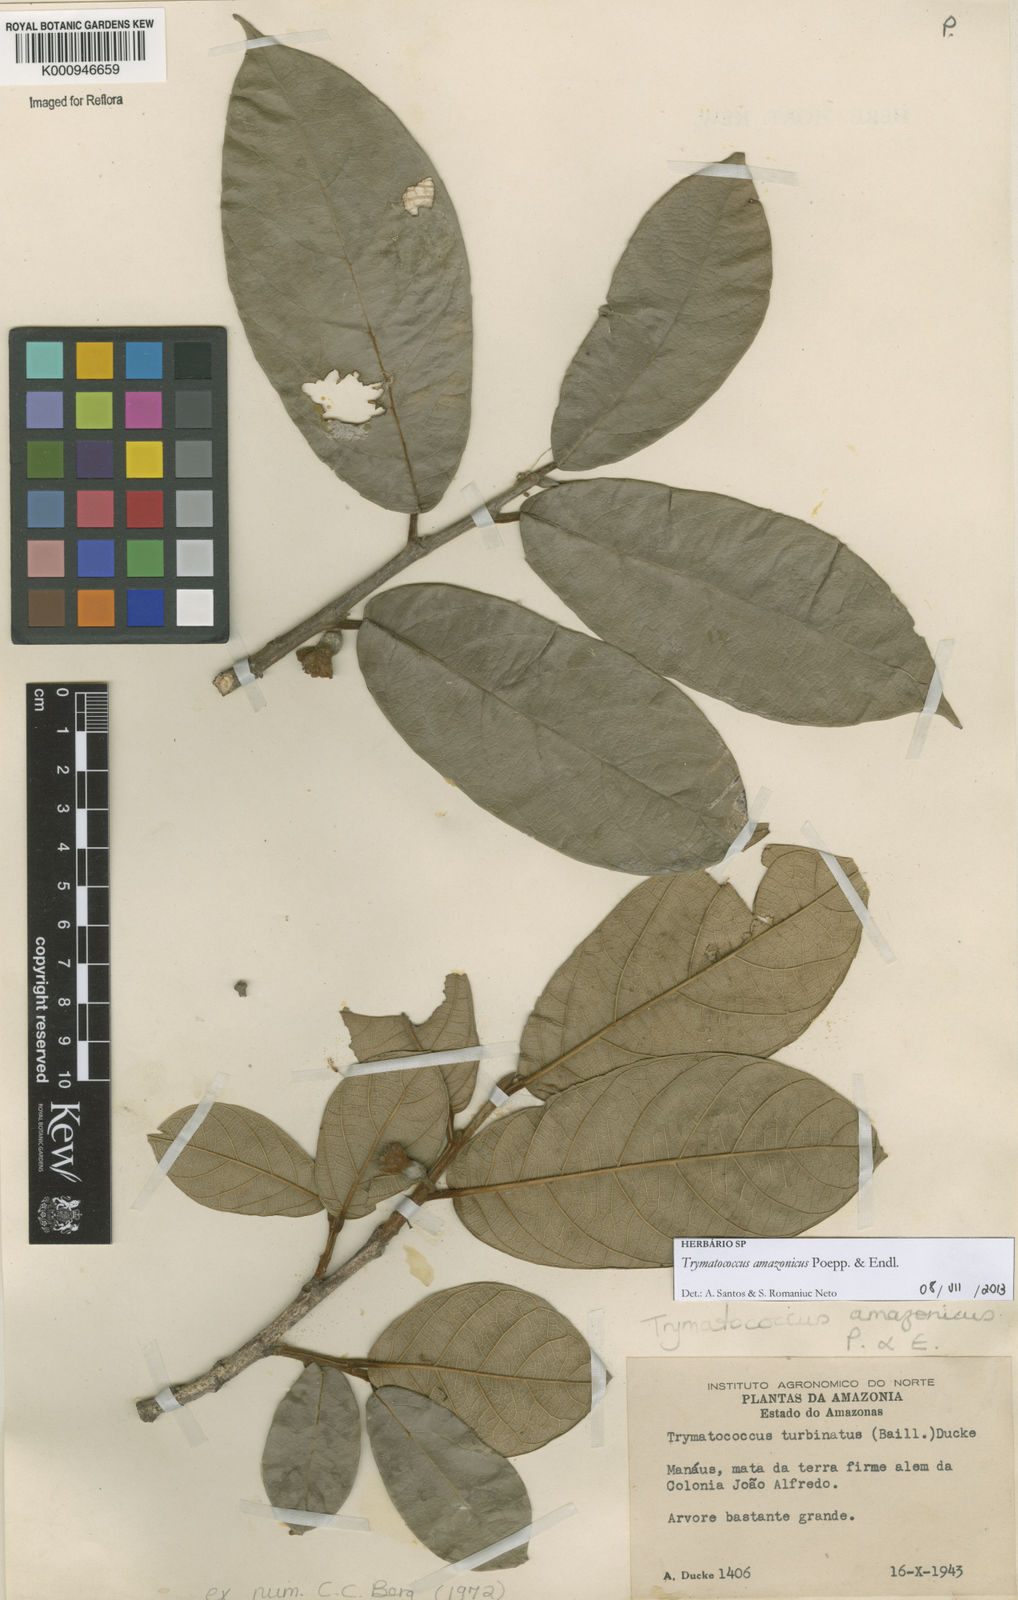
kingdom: Plantae
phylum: Tracheophyta
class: Magnoliopsida
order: Rosales
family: Moraceae
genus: Brosimum
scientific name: Brosimum amazonicum
